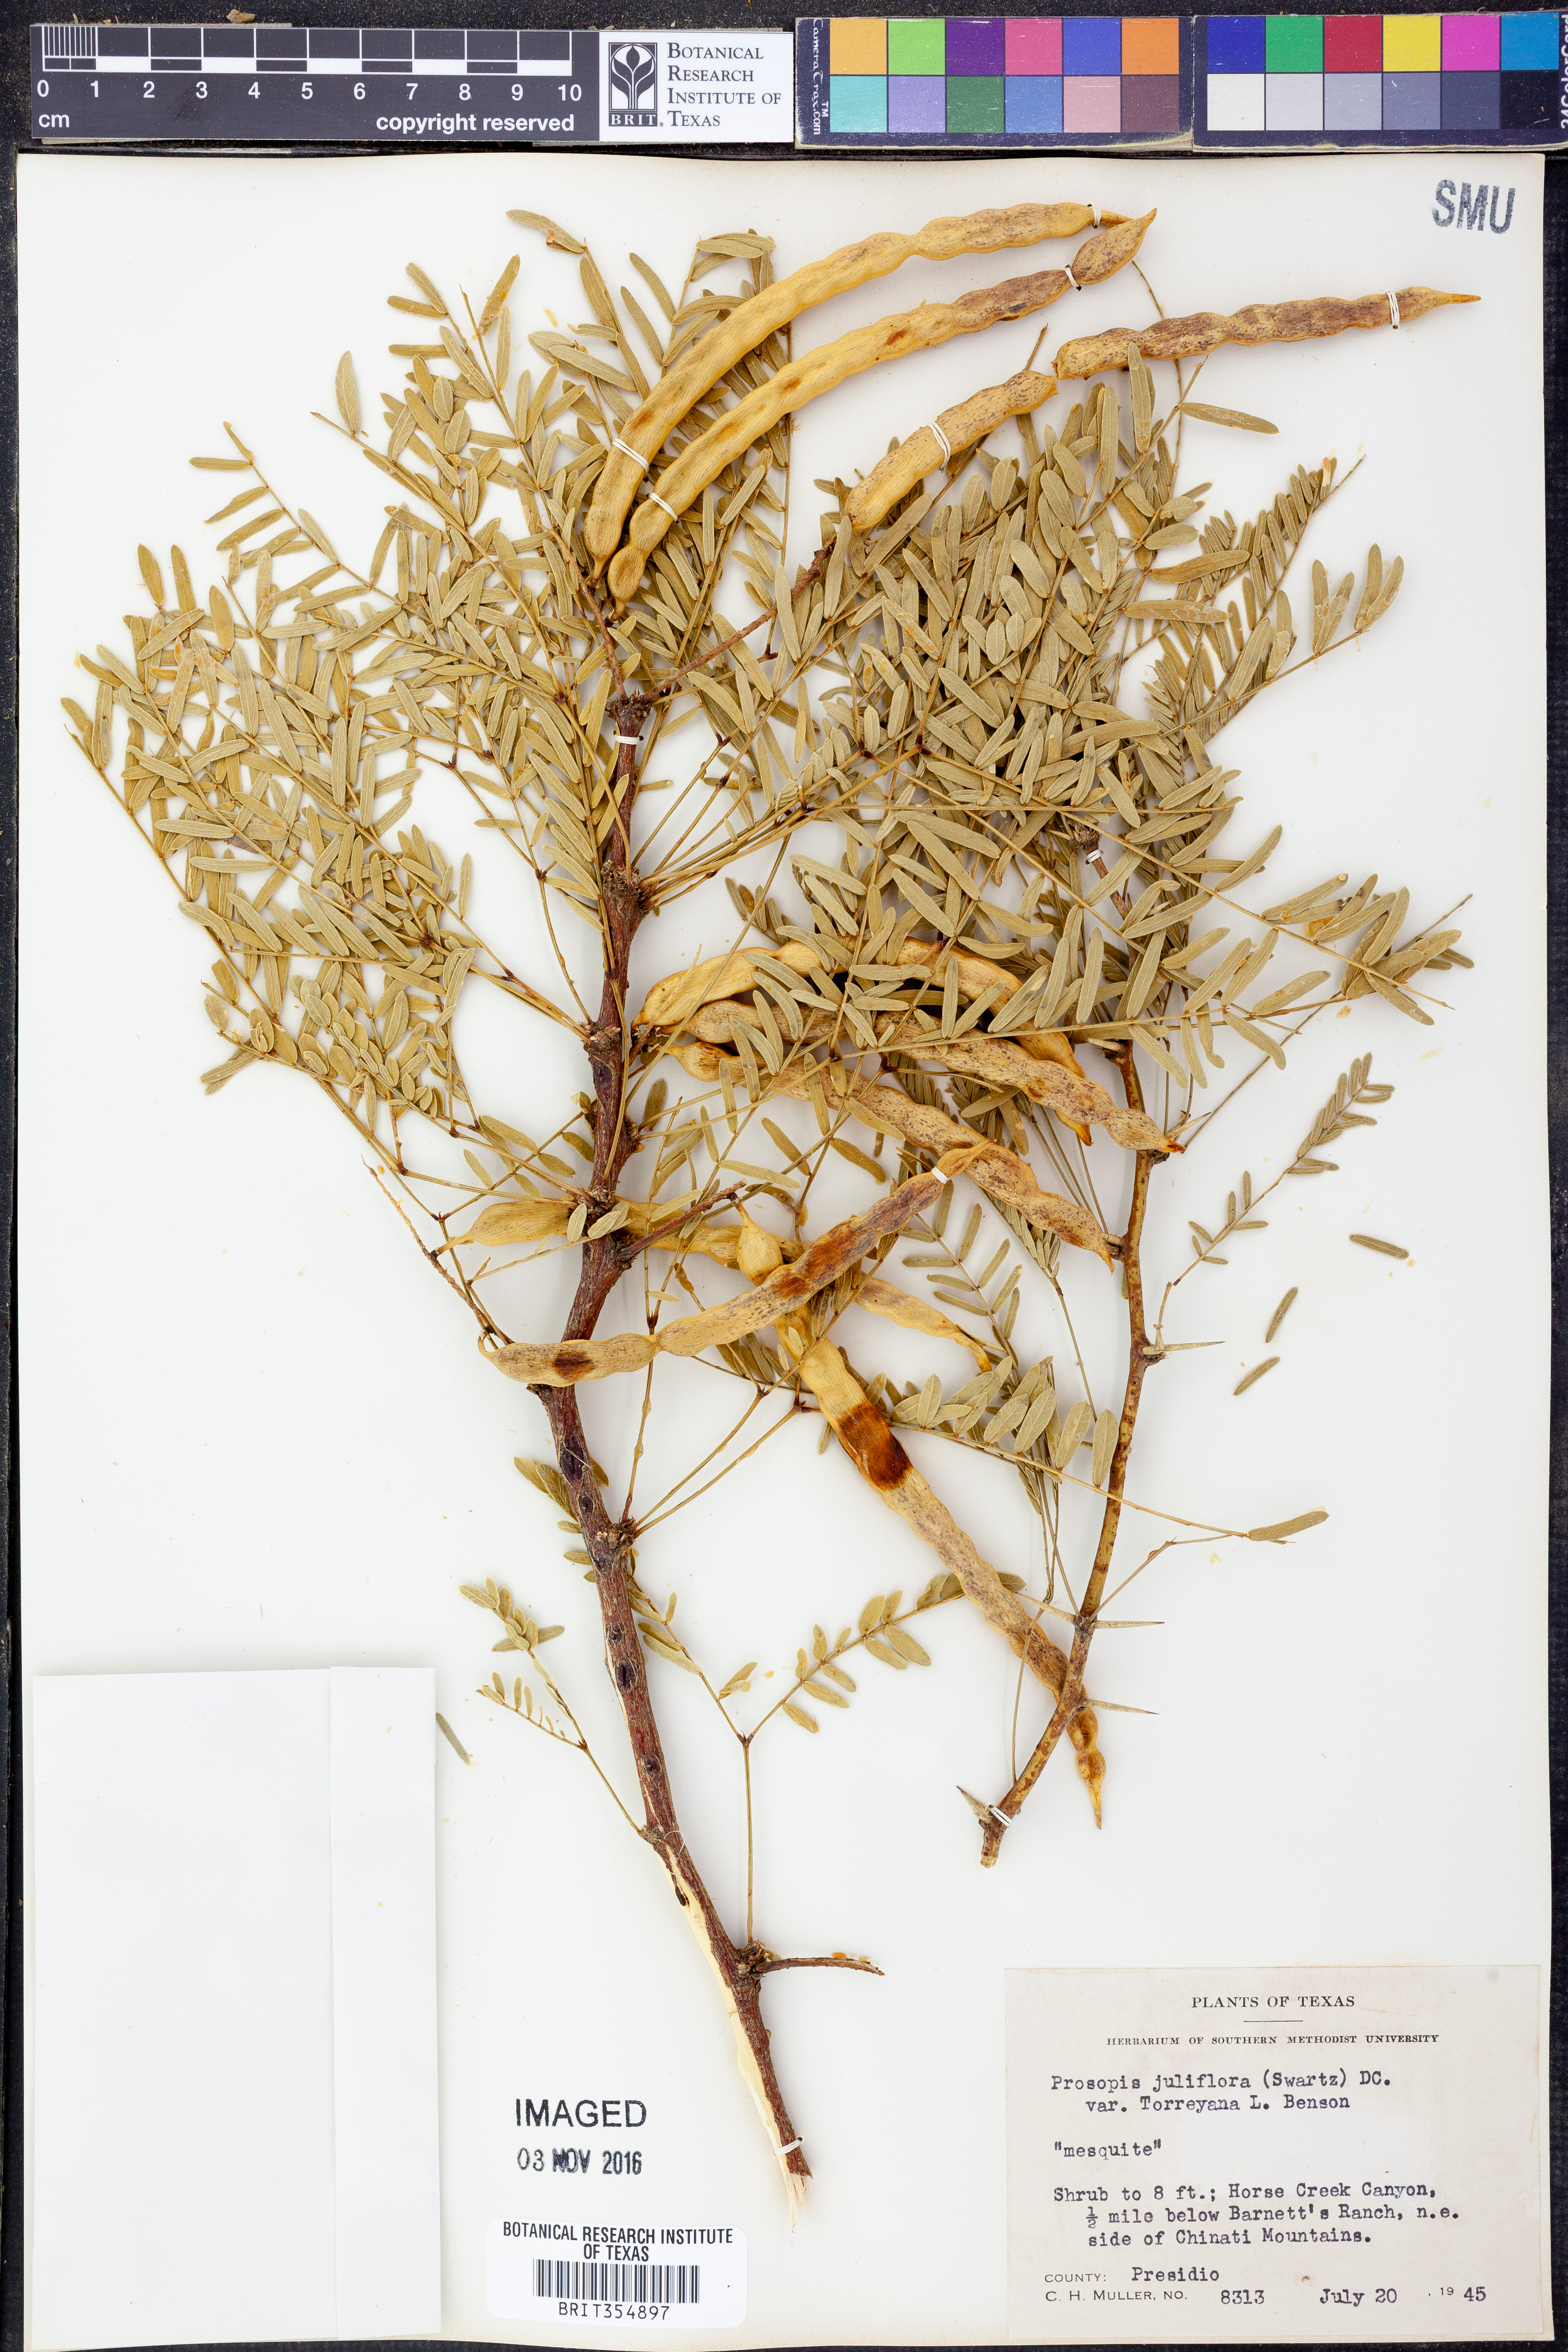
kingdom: Plantae
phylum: Tracheophyta
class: Magnoliopsida
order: Fabales
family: Fabaceae
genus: Prosopis
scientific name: Prosopis glandulosa
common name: Honey mesquite
